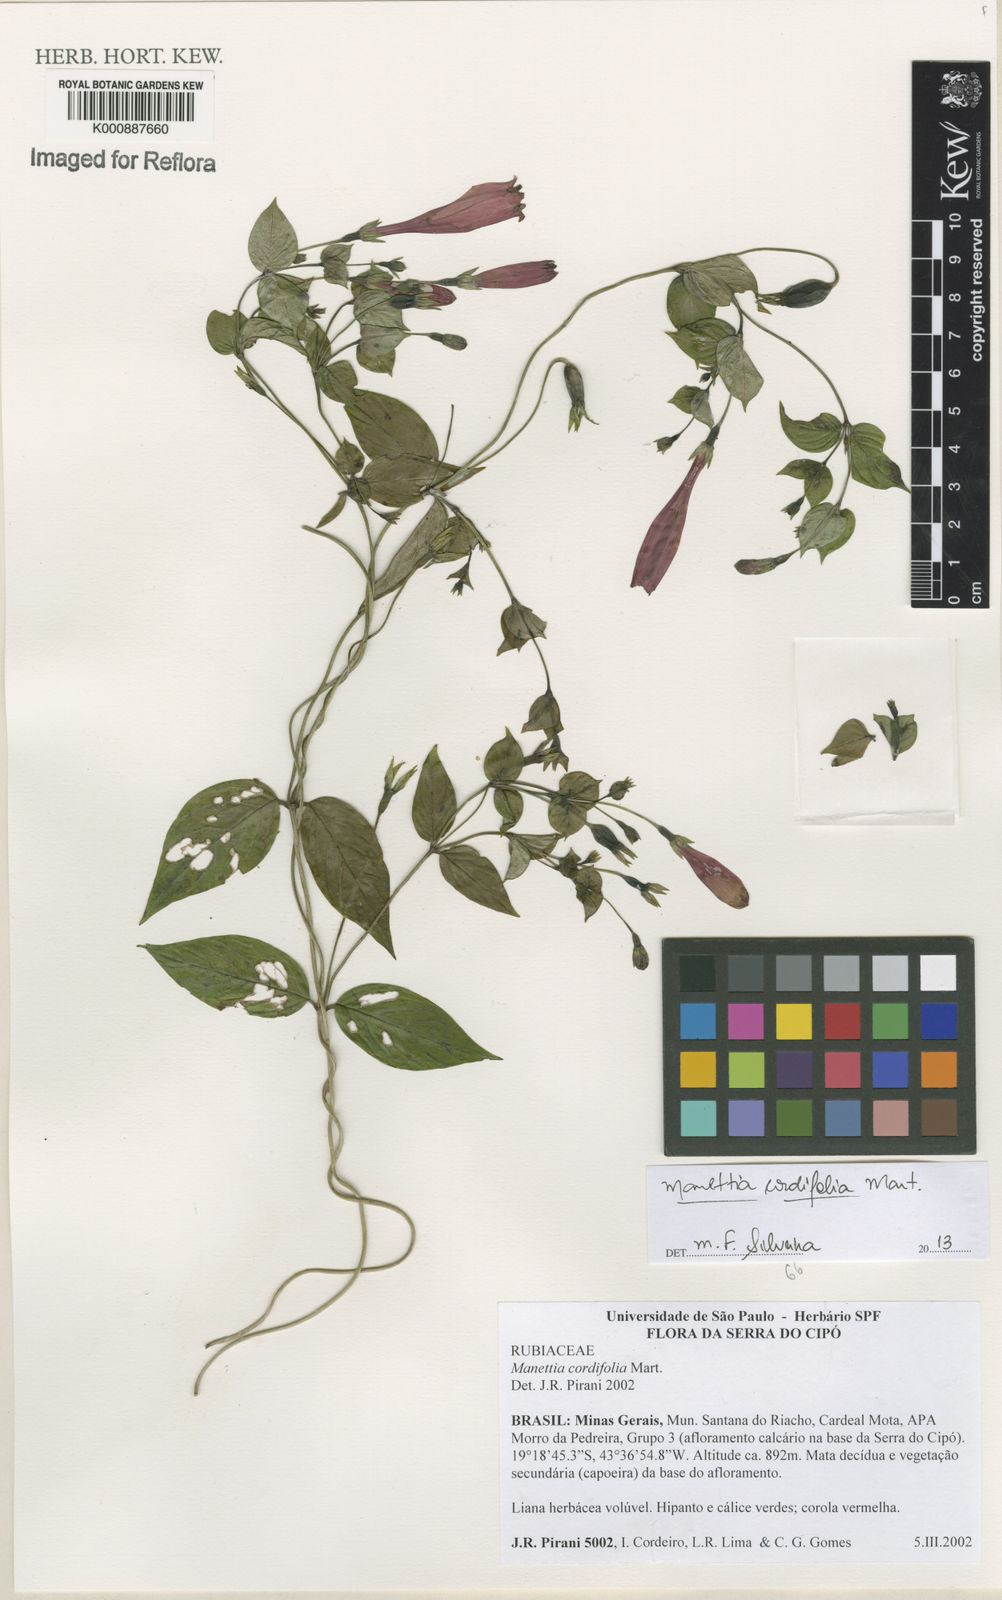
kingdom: Plantae
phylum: Tracheophyta
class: Magnoliopsida
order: Gentianales
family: Rubiaceae
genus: Manettia
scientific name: Manettia
